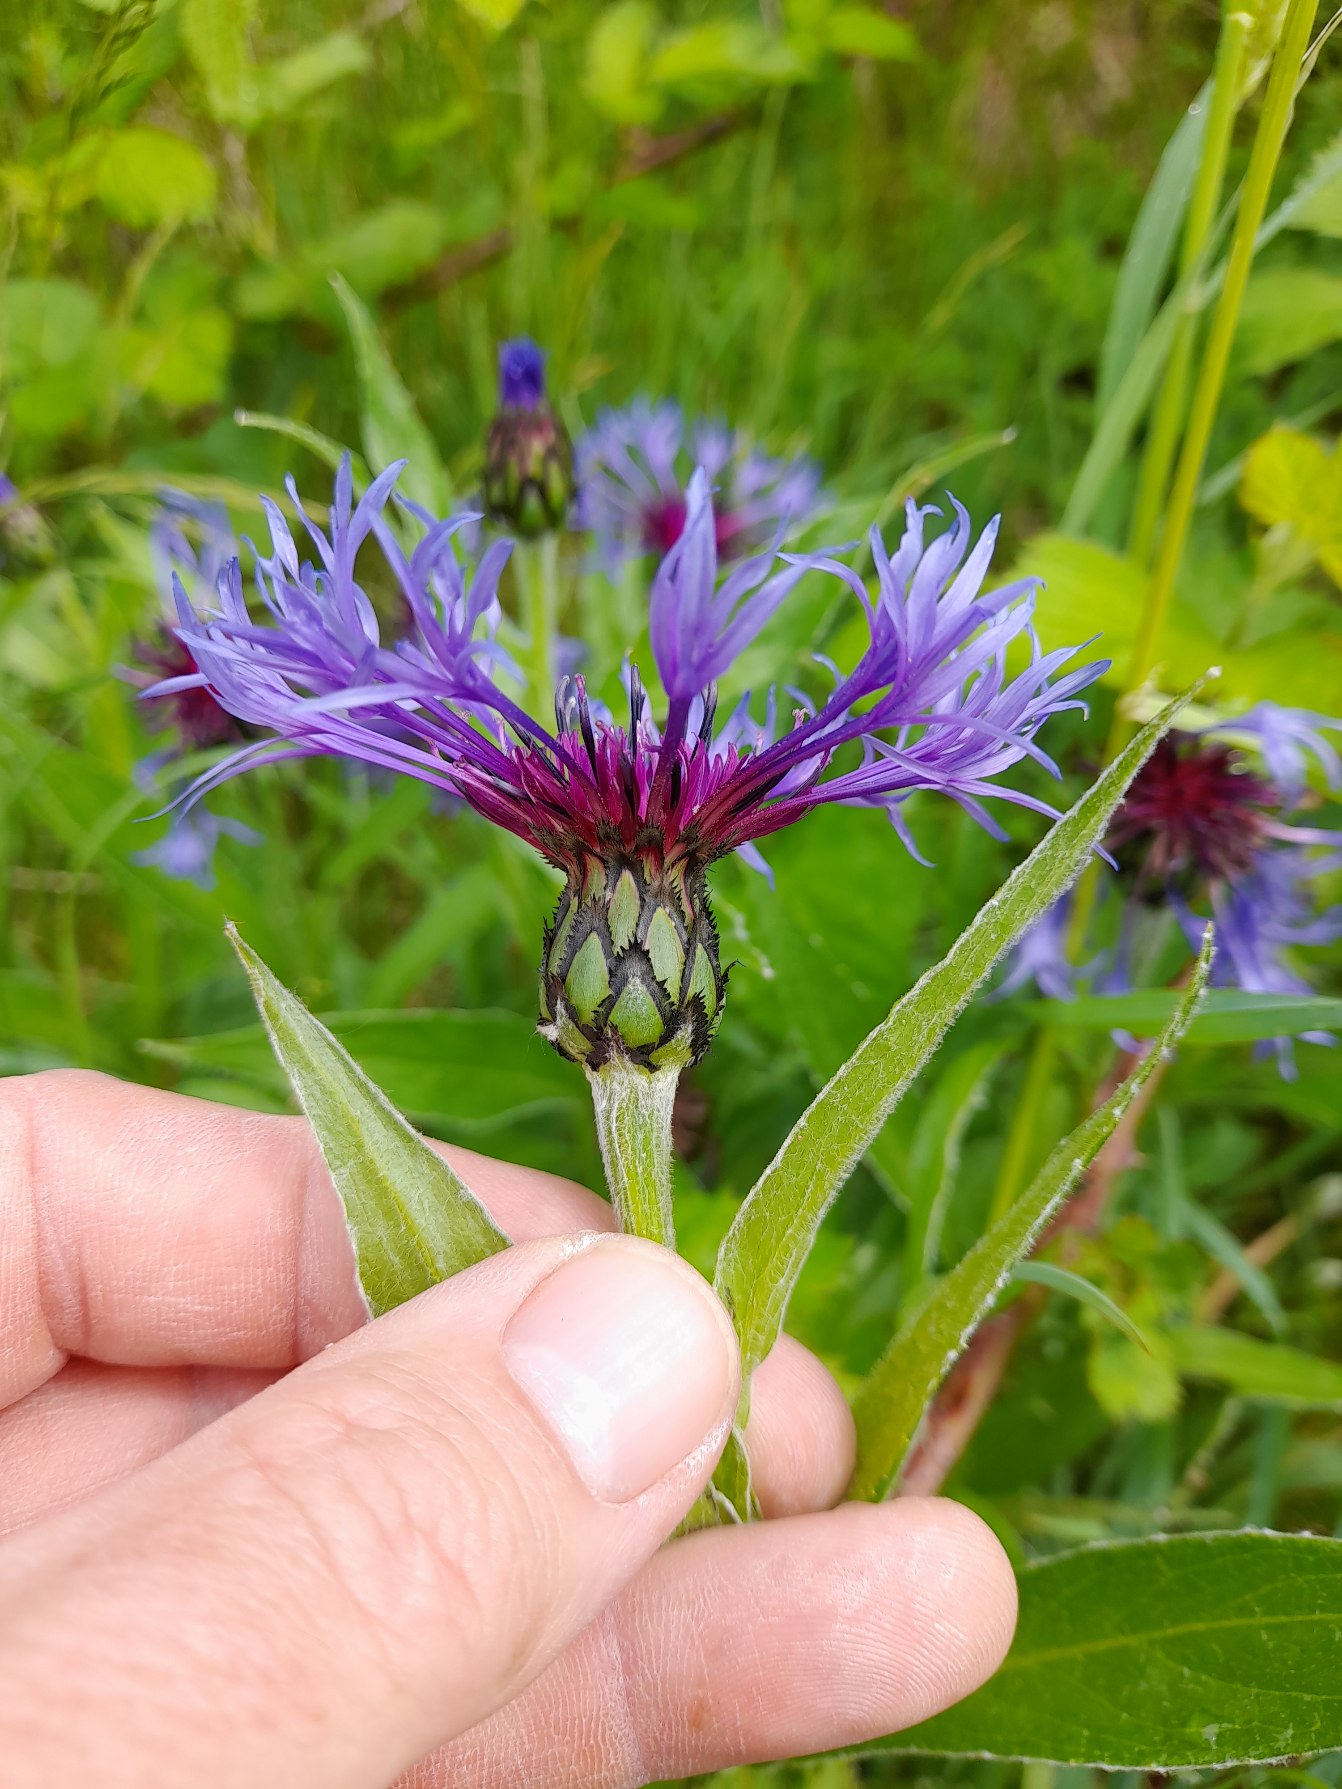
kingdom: Plantae
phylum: Tracheophyta
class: Magnoliopsida
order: Asterales
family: Asteraceae
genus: Centaurea
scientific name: Centaurea montana
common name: Bjerg-knopurt
